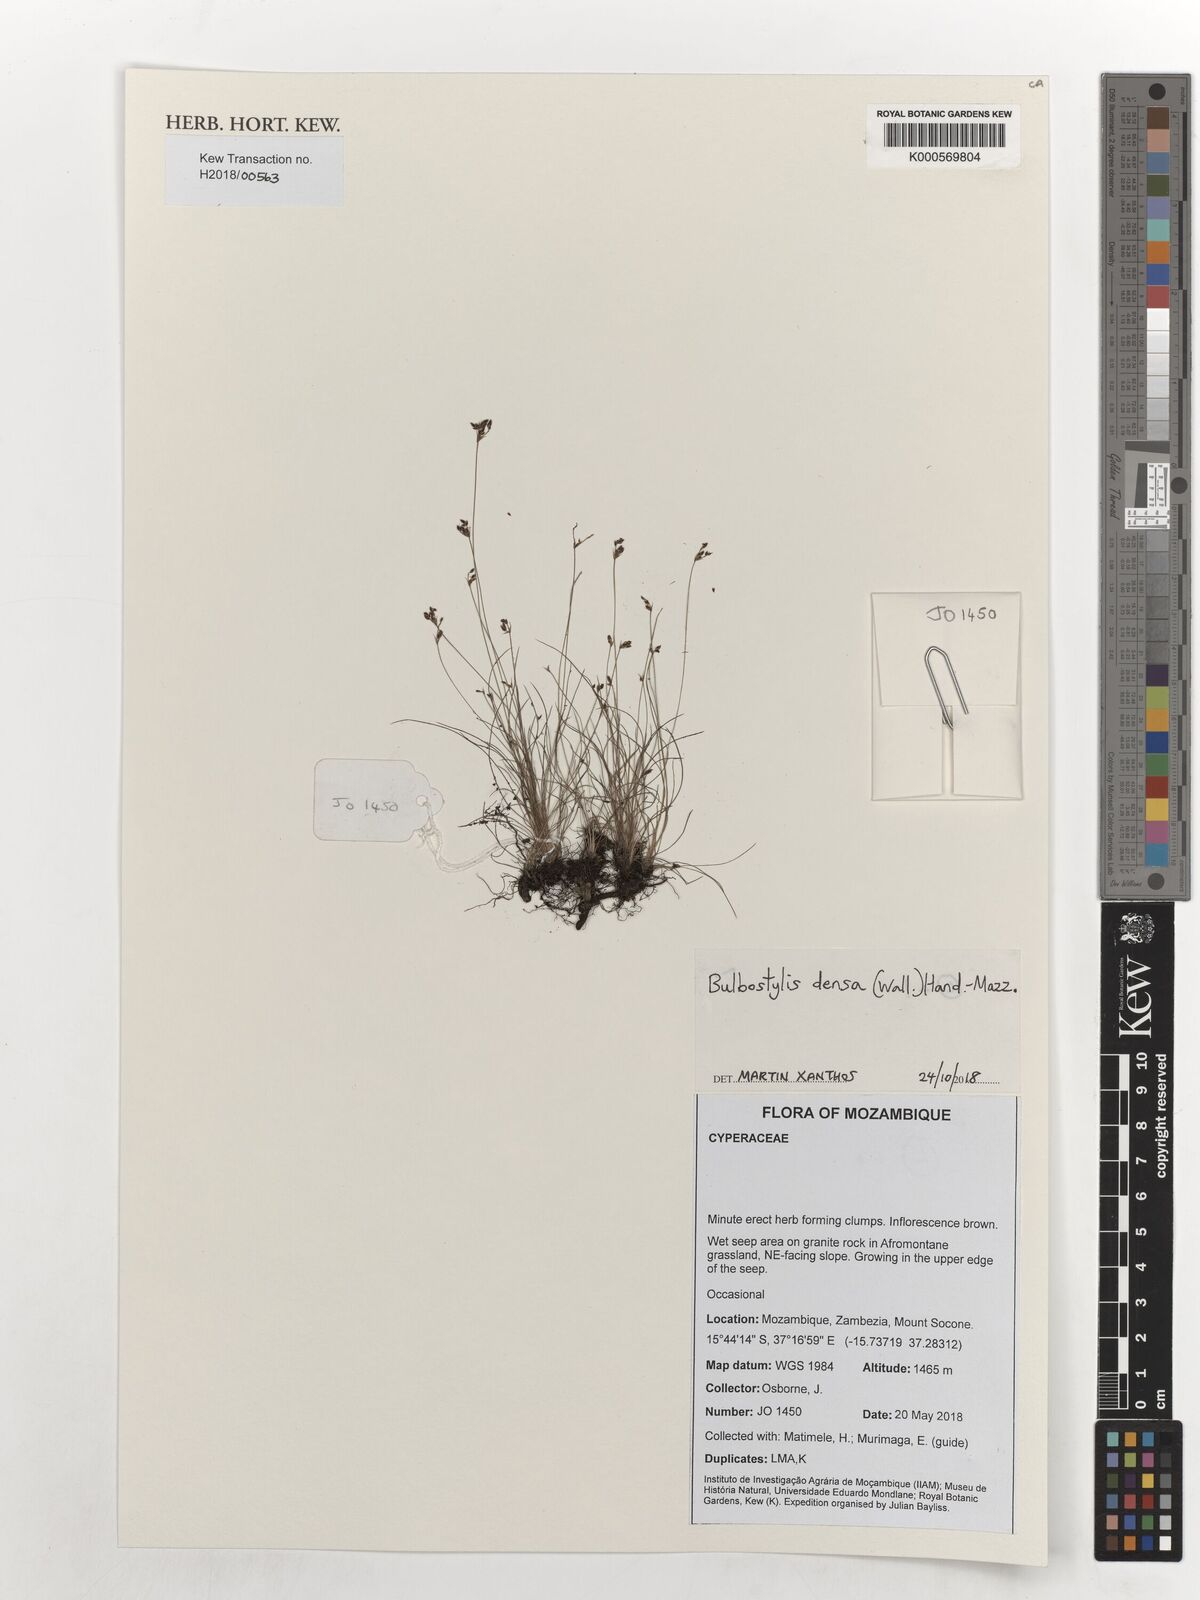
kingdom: Plantae
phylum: Tracheophyta
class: Liliopsida
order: Poales
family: Cyperaceae
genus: Bulbostylis
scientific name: Bulbostylis densa
